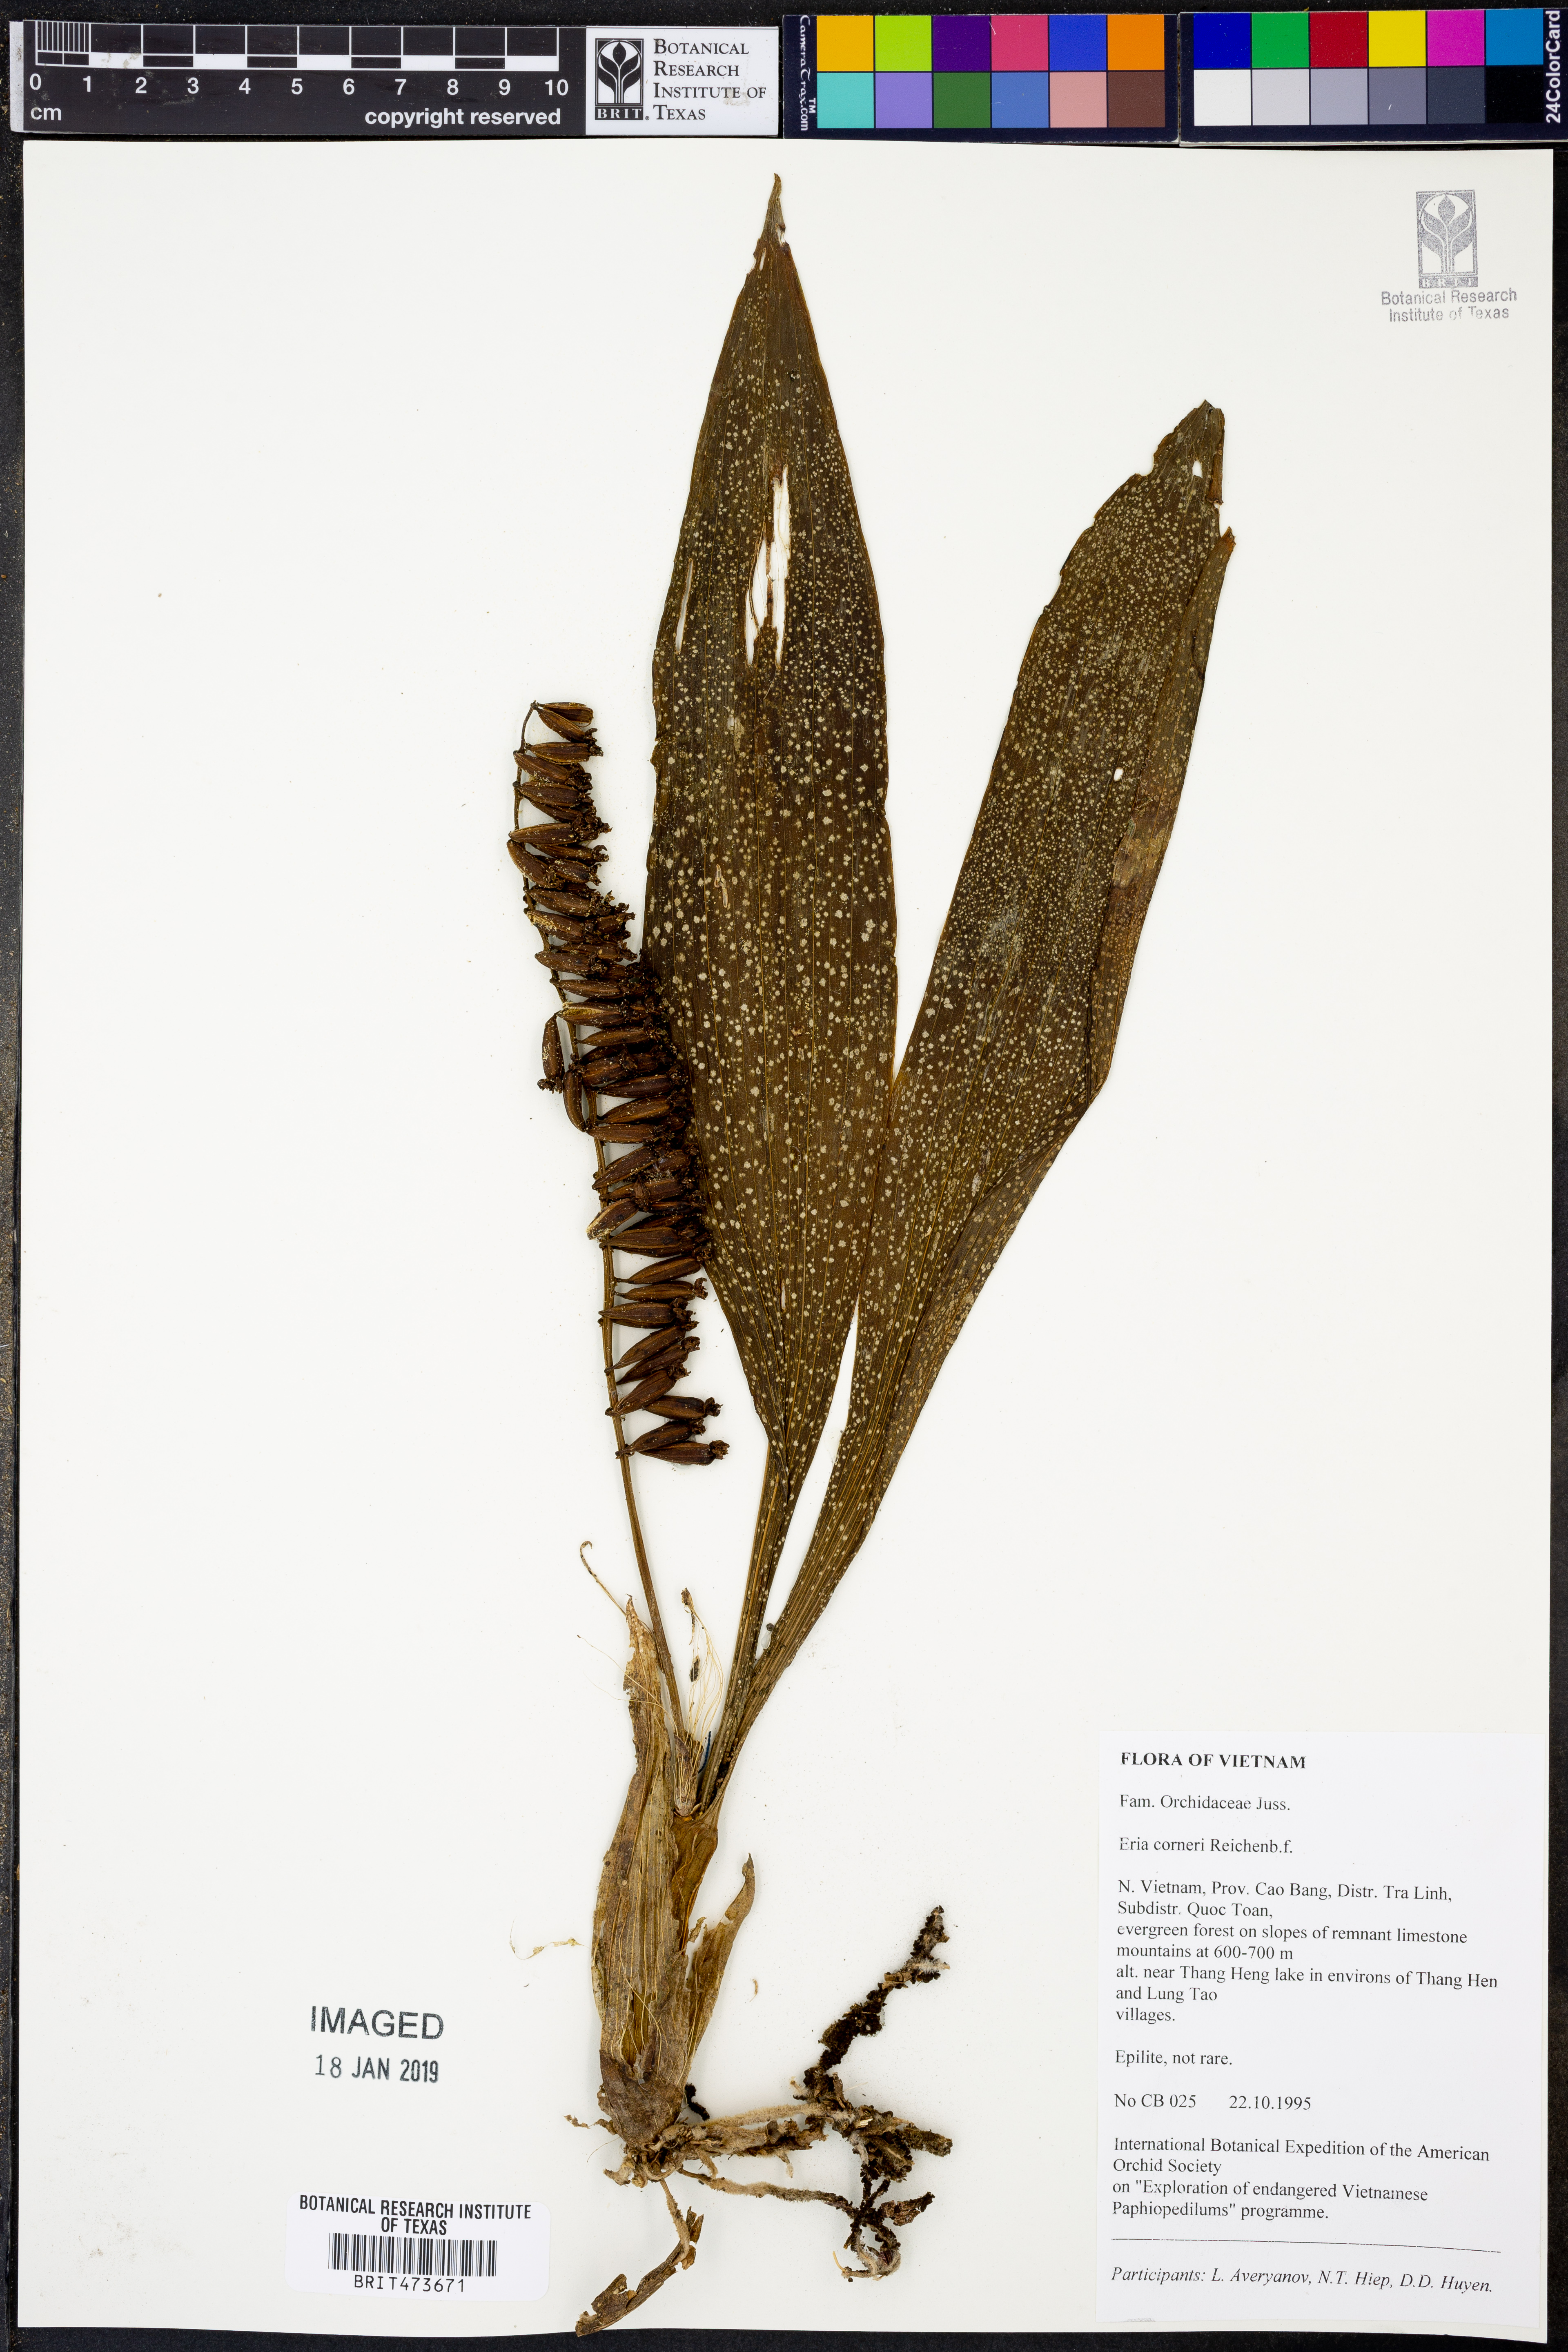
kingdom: Plantae
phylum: Tracheophyta
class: Liliopsida
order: Asparagales
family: Orchidaceae
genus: Eria
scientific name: Eria scabrilinguis
